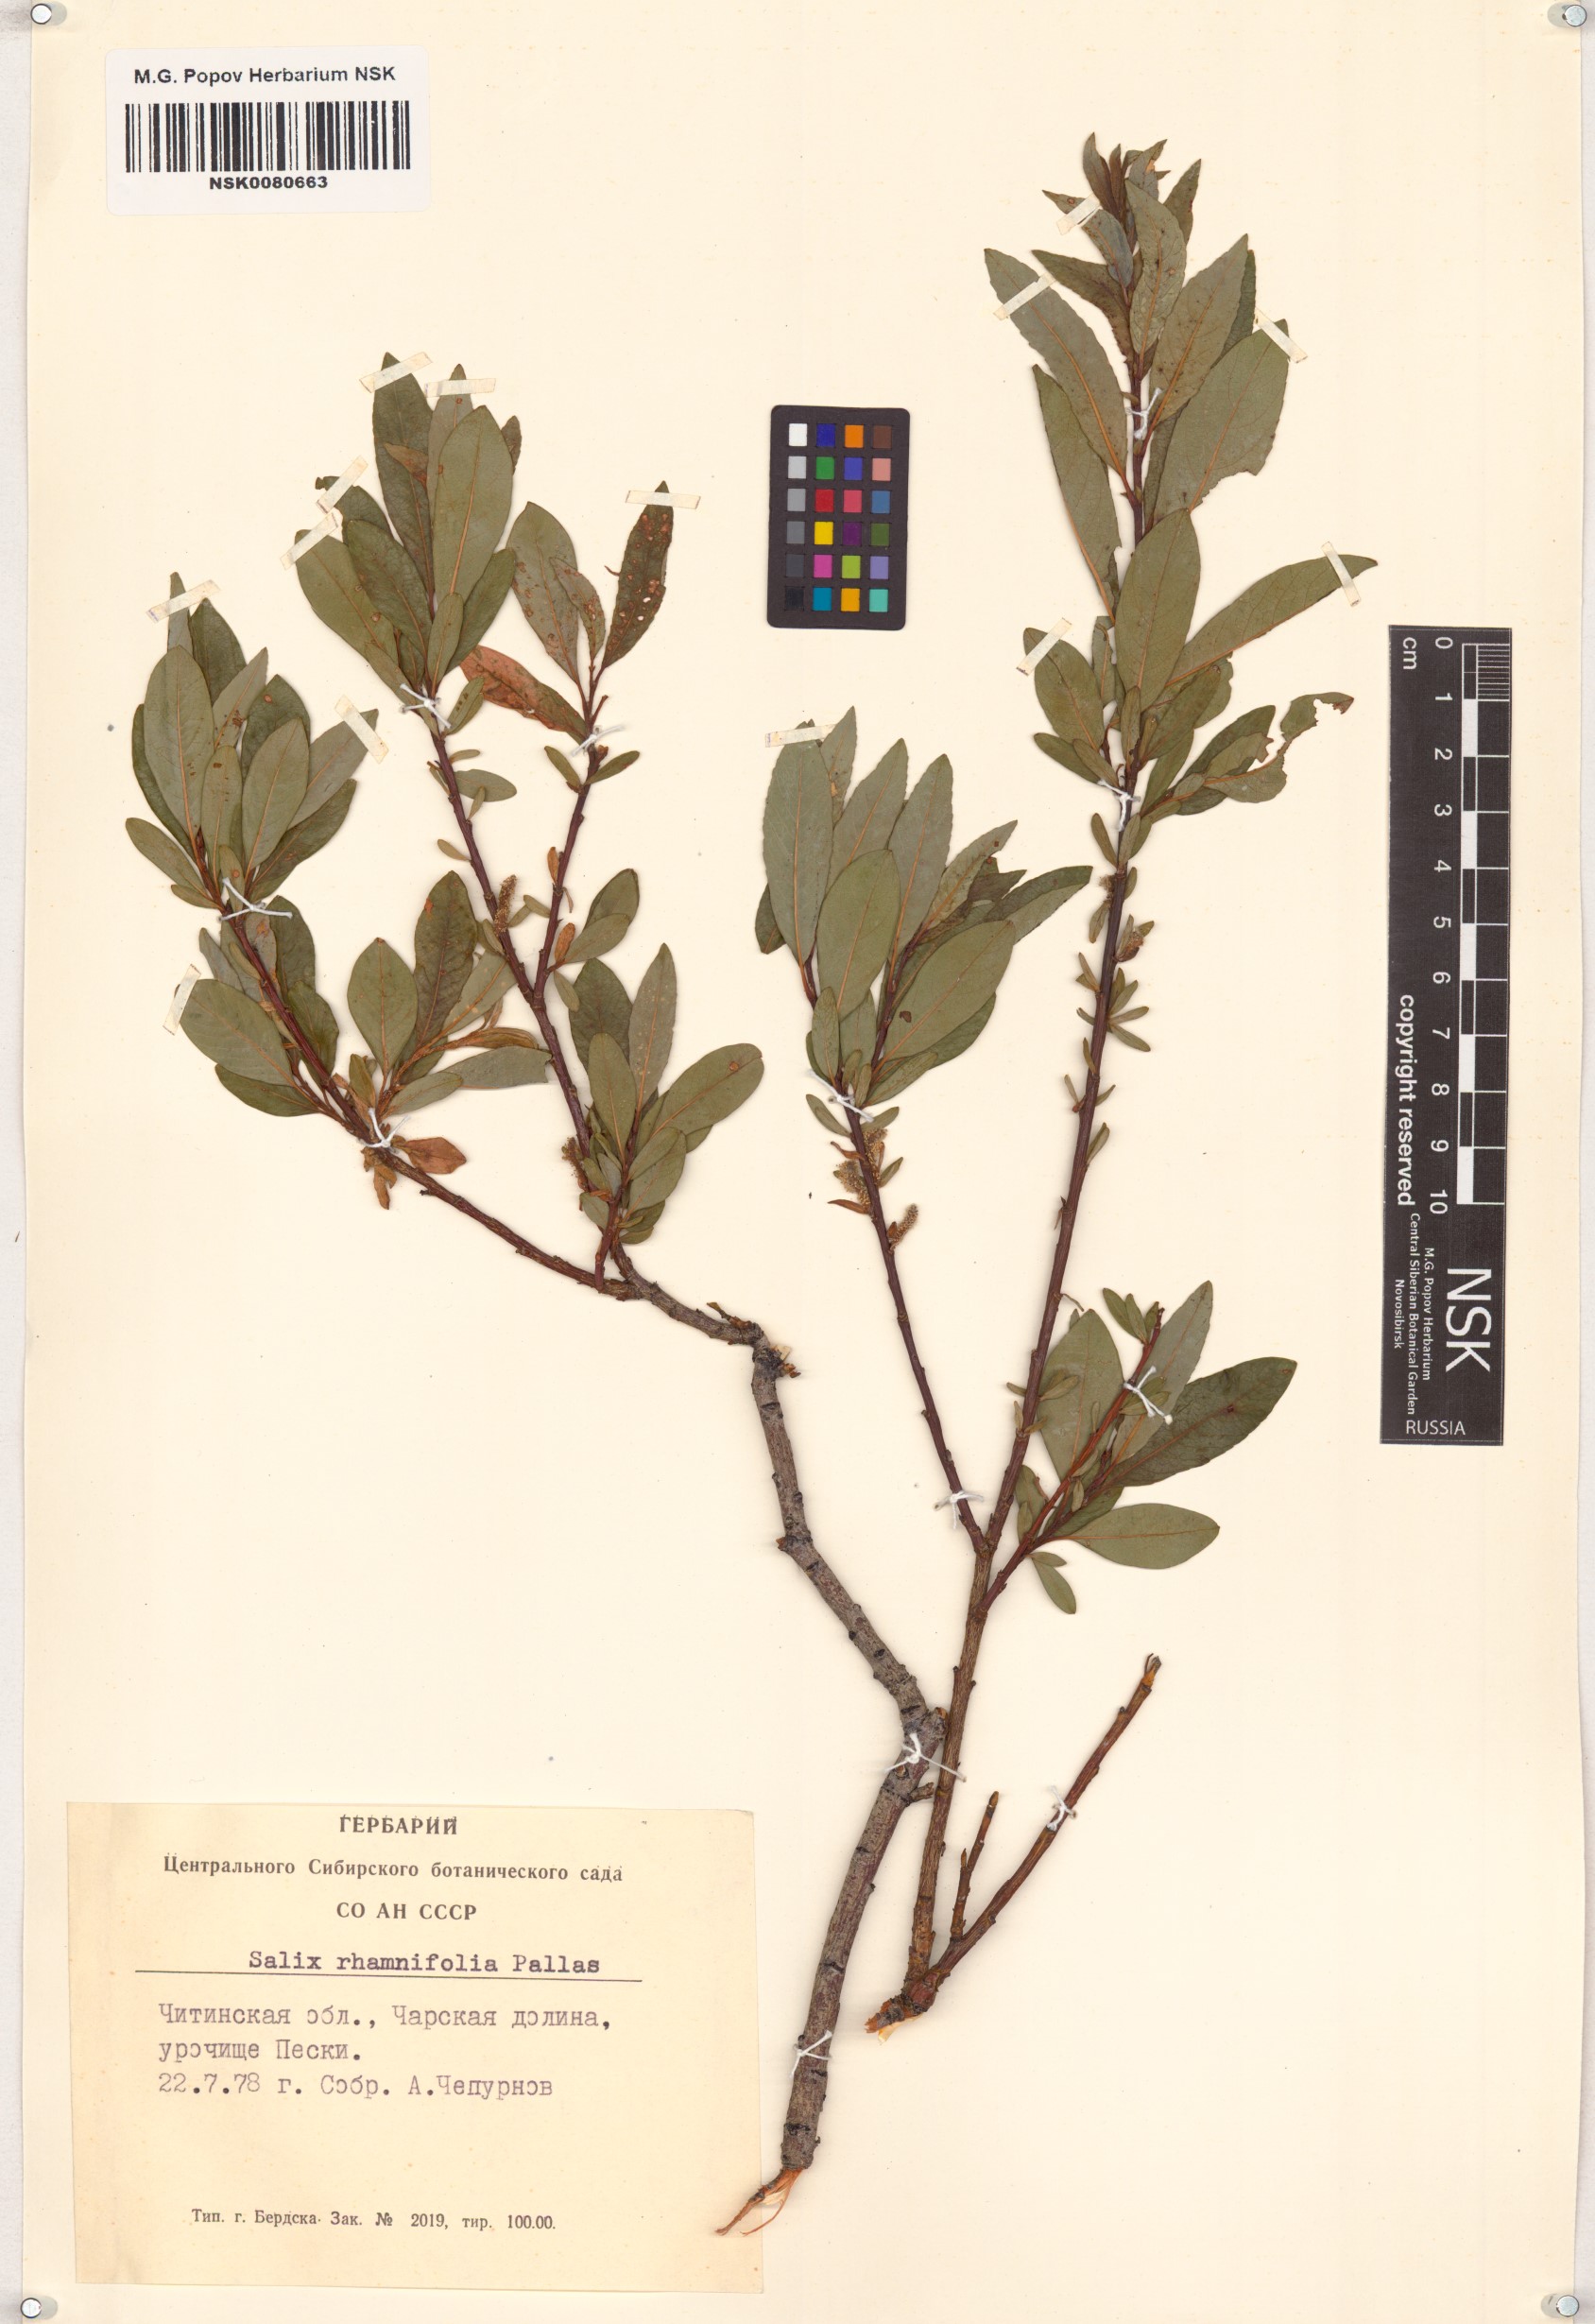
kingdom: Plantae
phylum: Tracheophyta
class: Magnoliopsida
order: Malpighiales
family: Salicaceae
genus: Salix
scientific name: Salix rhamnifolia
